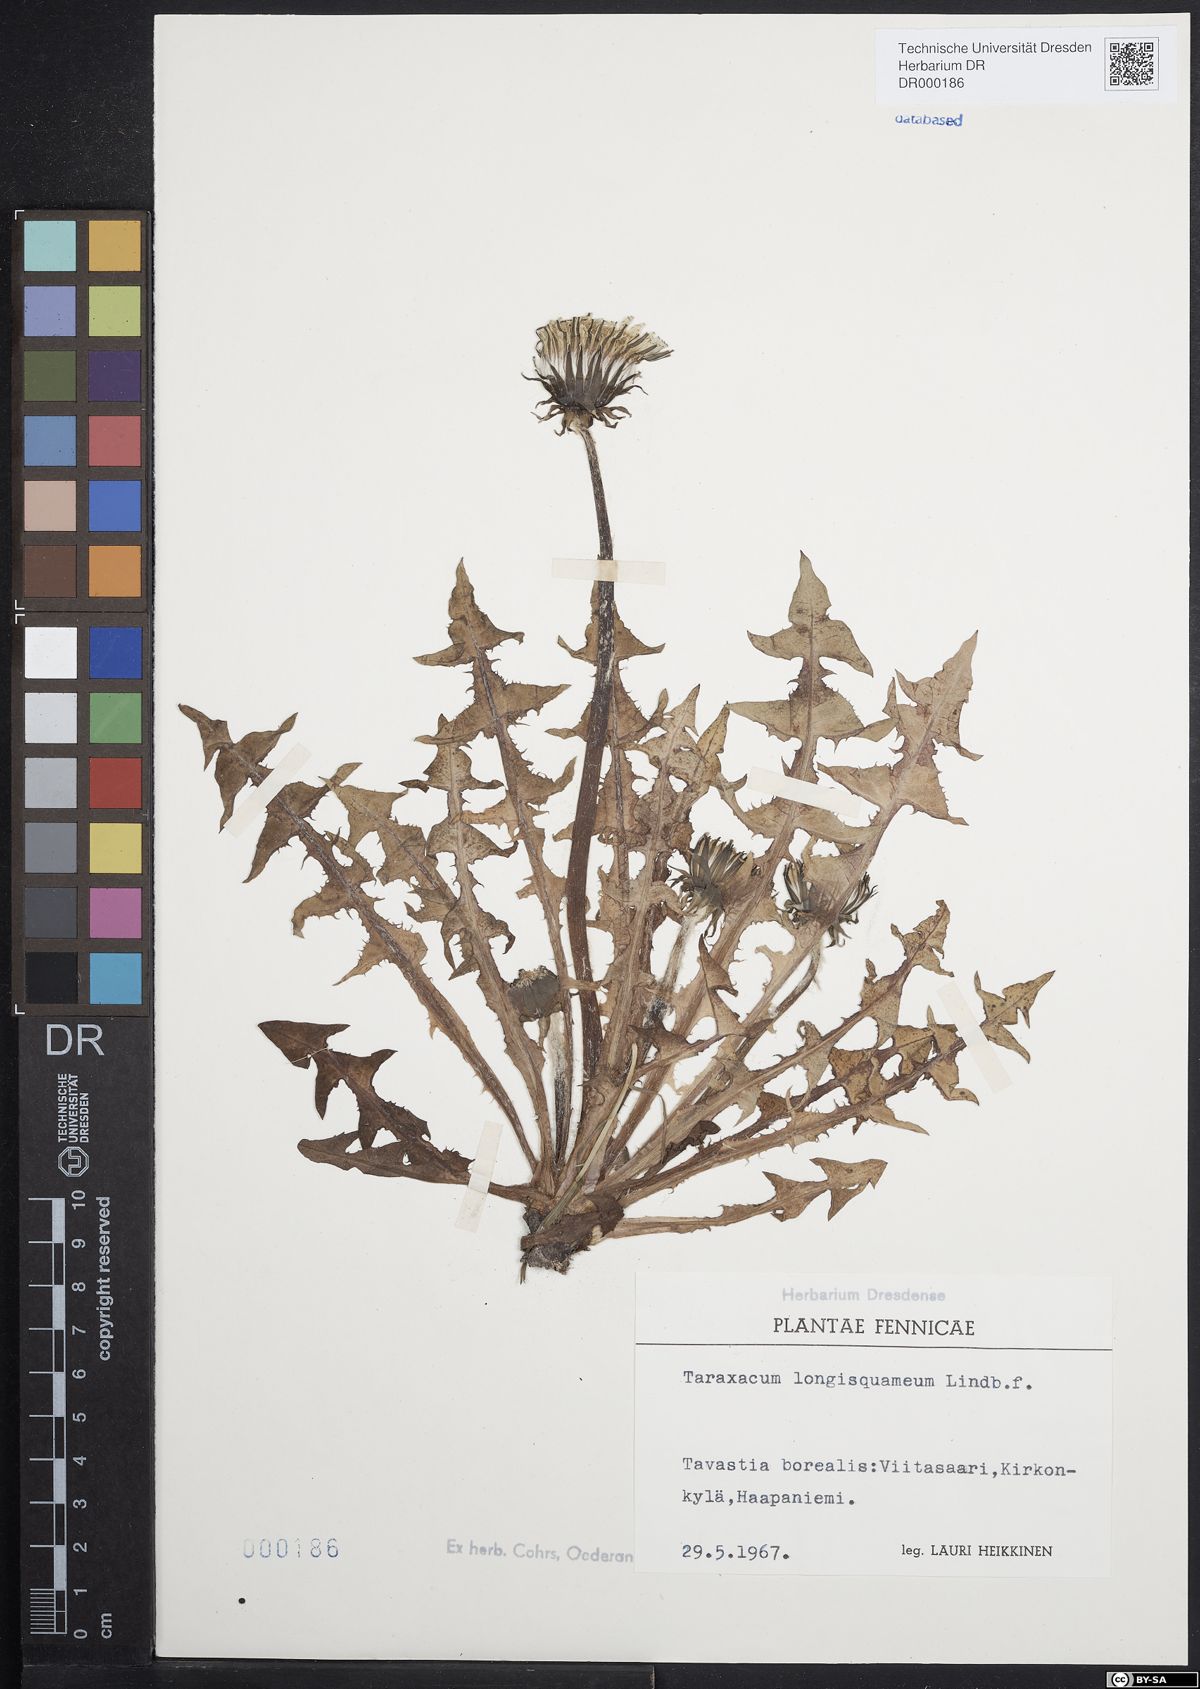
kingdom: Plantae
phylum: Tracheophyta
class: Magnoliopsida
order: Asterales
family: Asteraceae
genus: Taraxacum
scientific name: Taraxacum longisquameum
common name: Elongate-bracted dandelion
